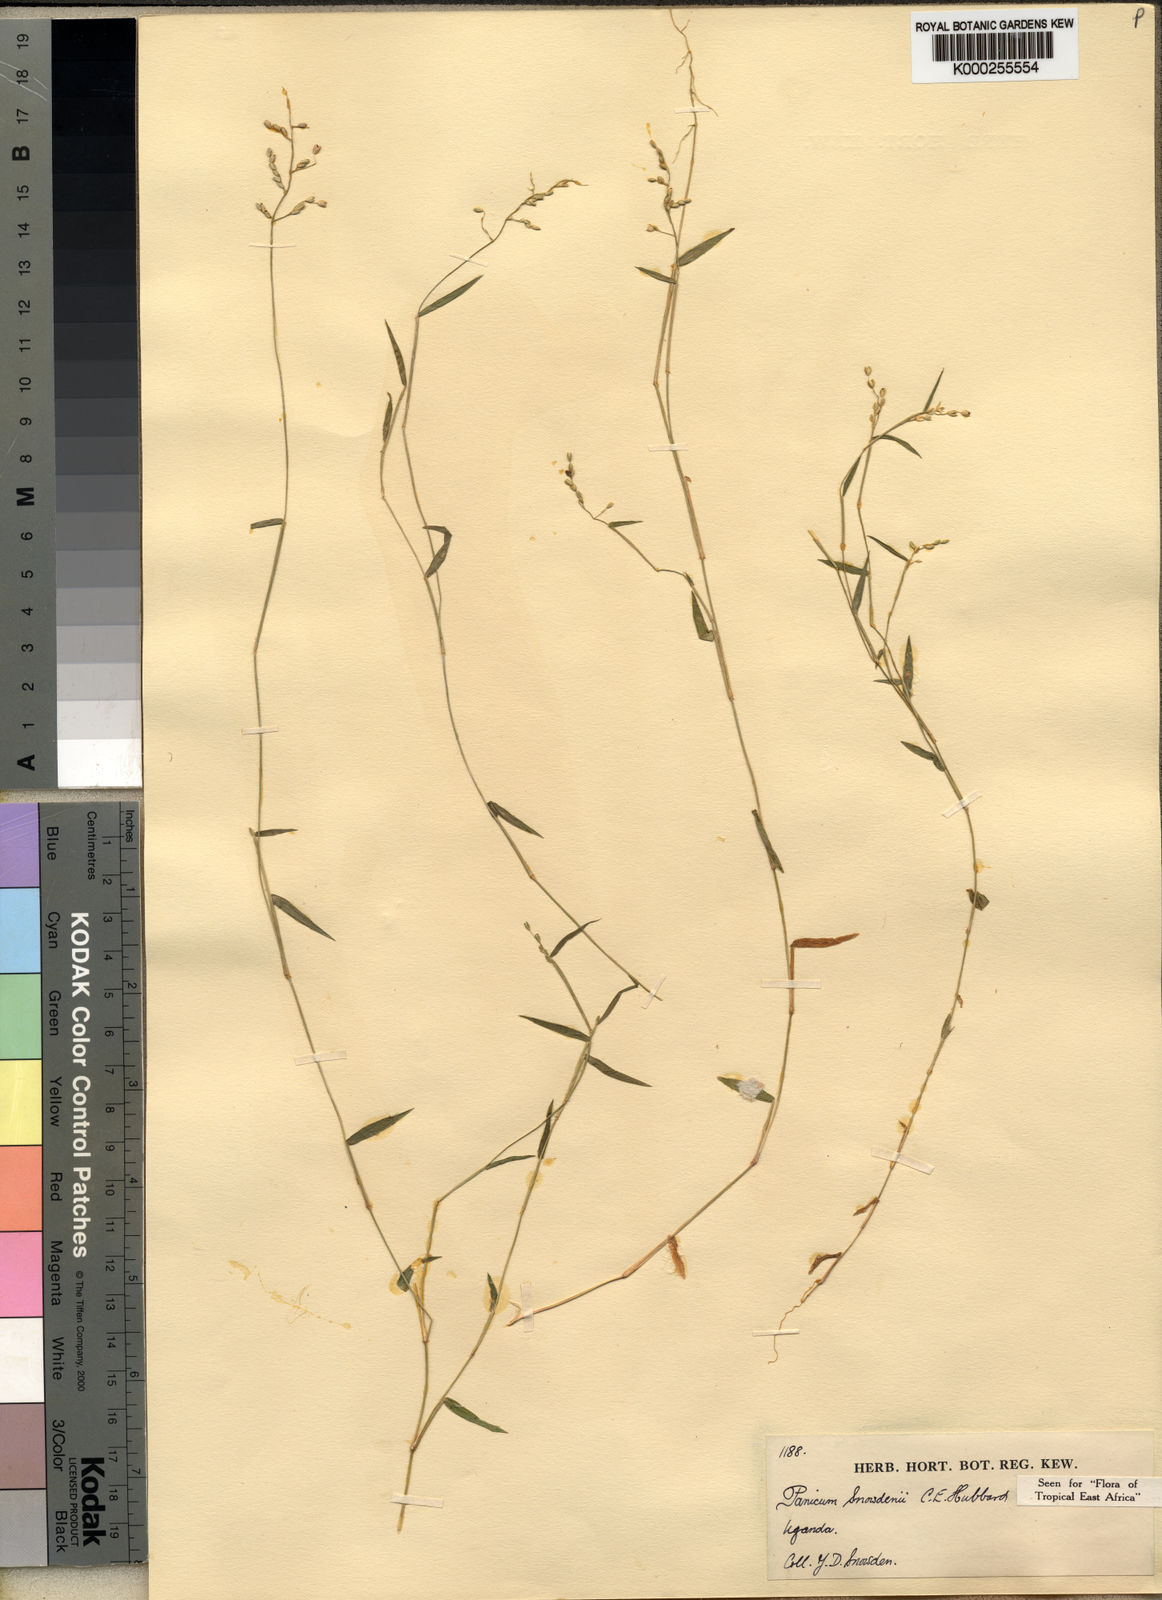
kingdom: Plantae
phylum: Tracheophyta
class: Liliopsida
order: Poales
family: Poaceae
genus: Adenochloa
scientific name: Adenochloa hymeniochila
